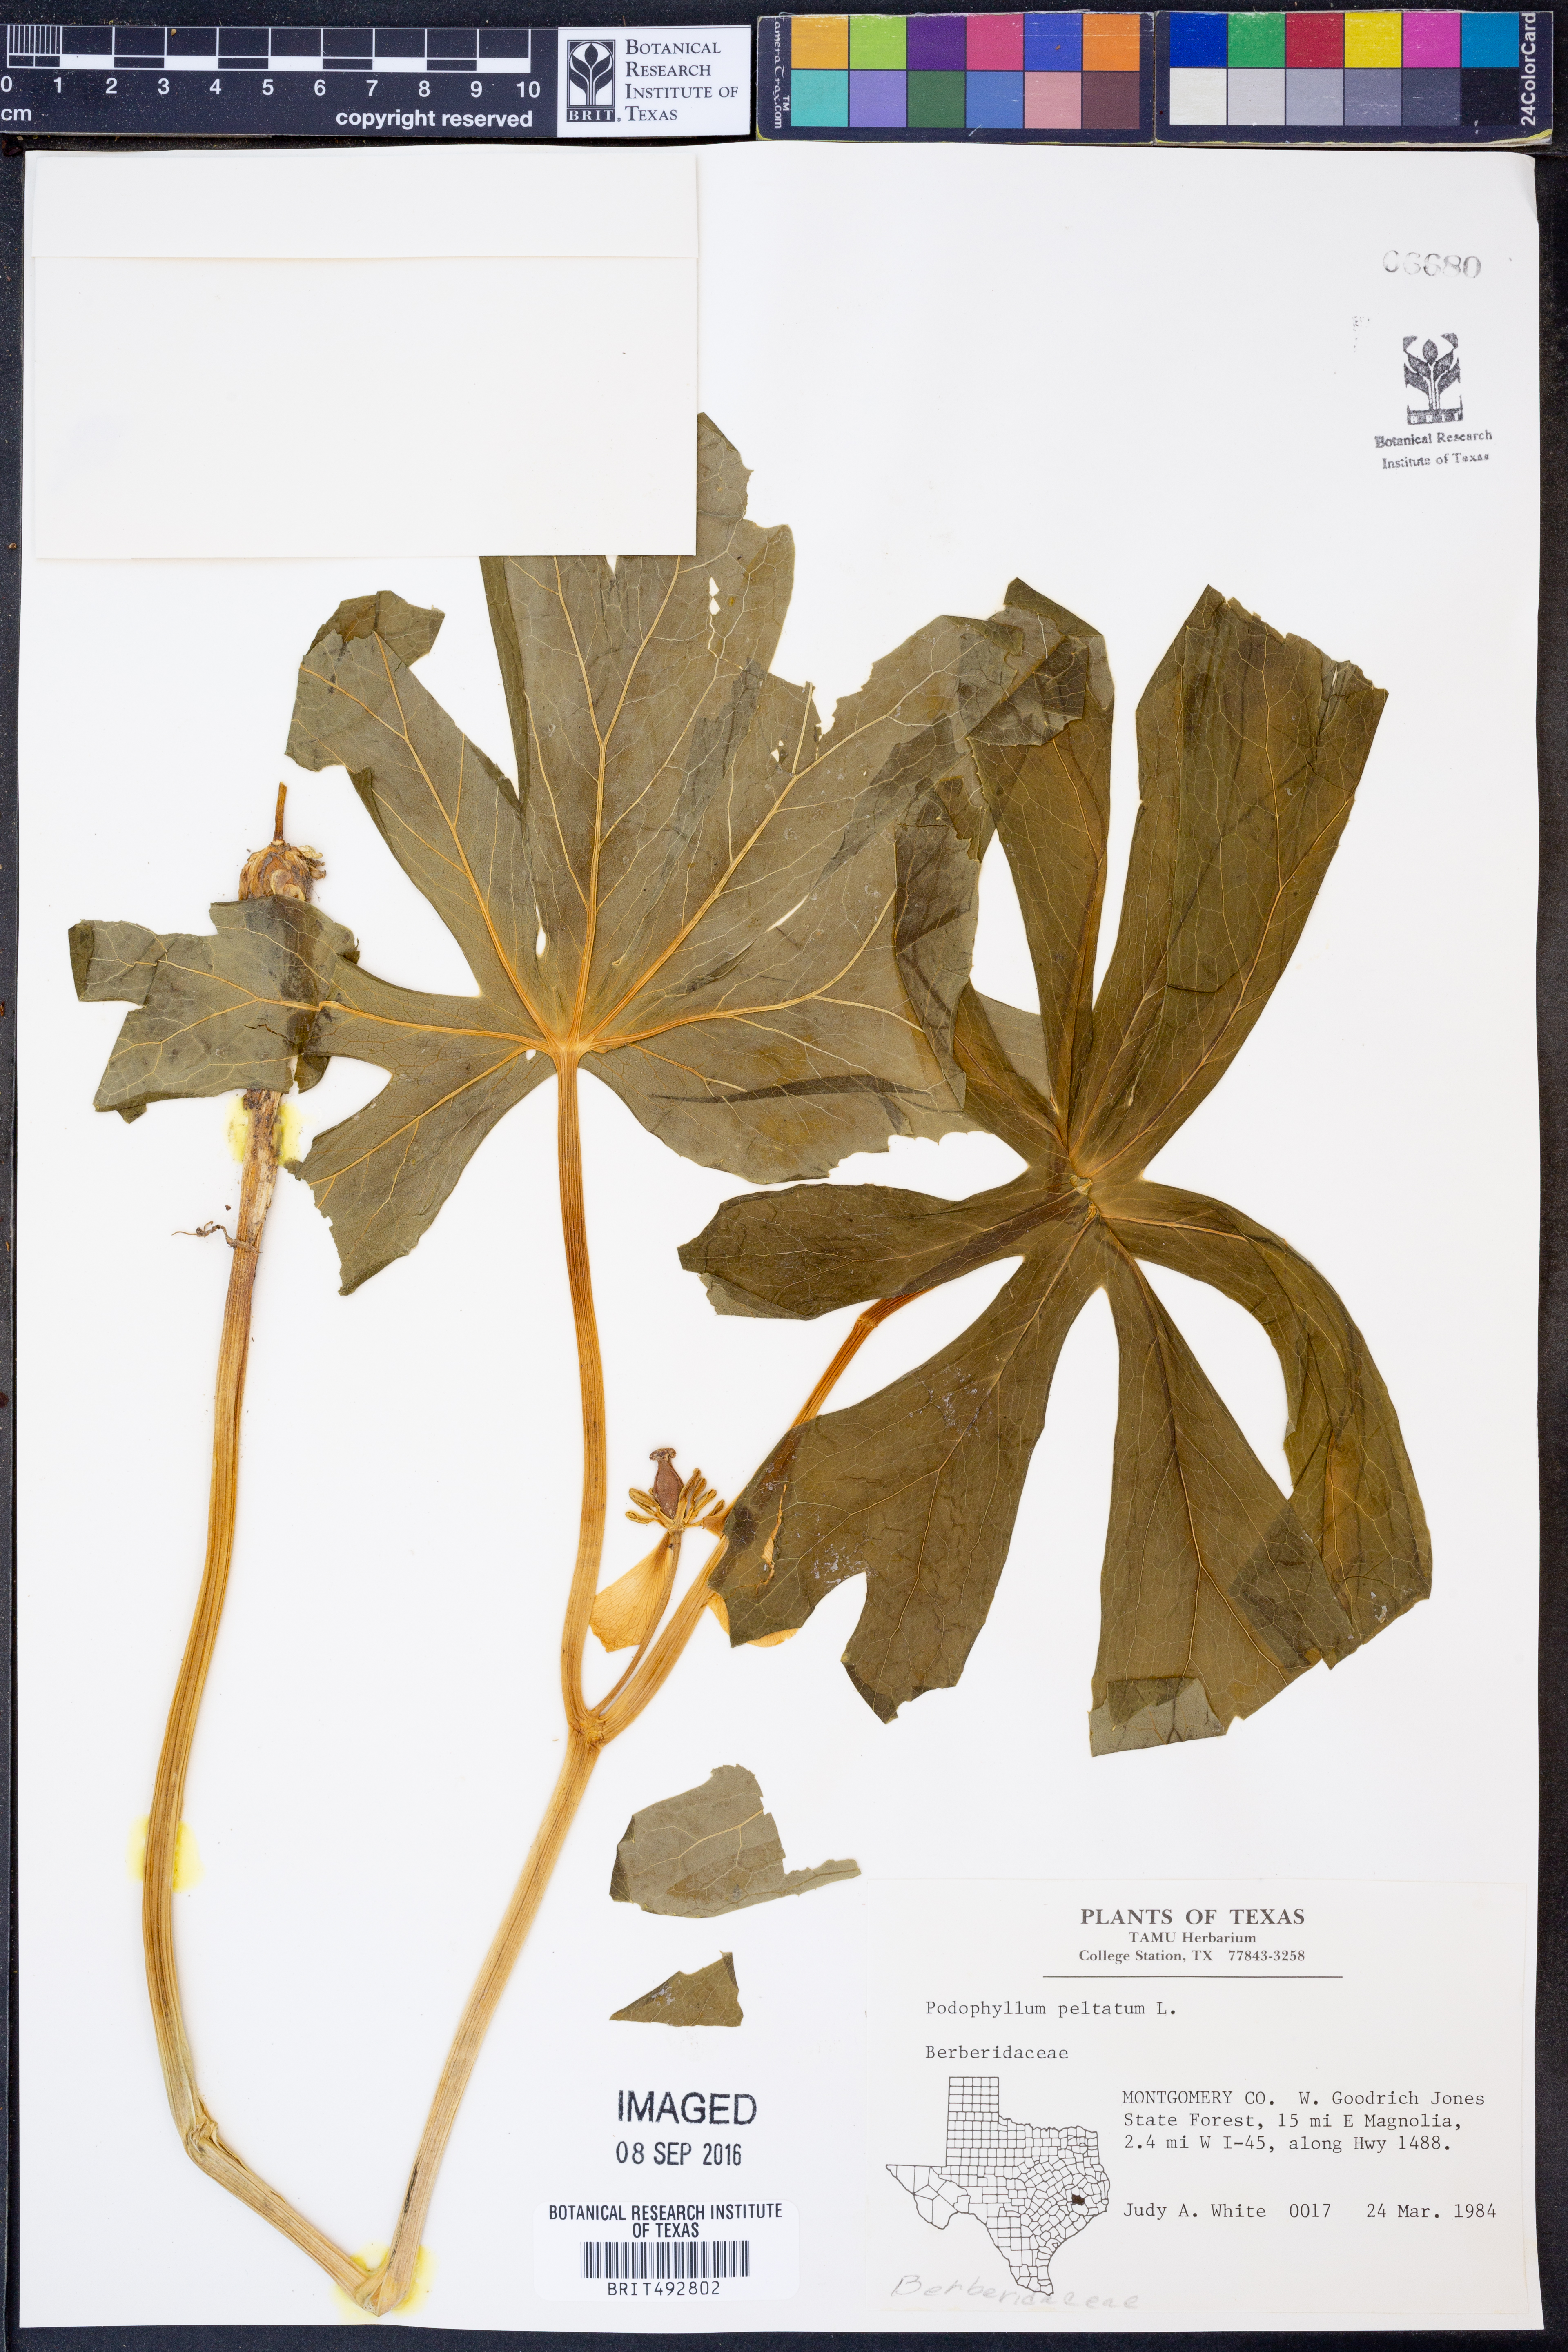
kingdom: Plantae
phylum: Tracheophyta
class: Magnoliopsida
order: Ranunculales
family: Berberidaceae
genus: Podophyllum
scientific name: Podophyllum peltatum
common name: Wild mandrake
